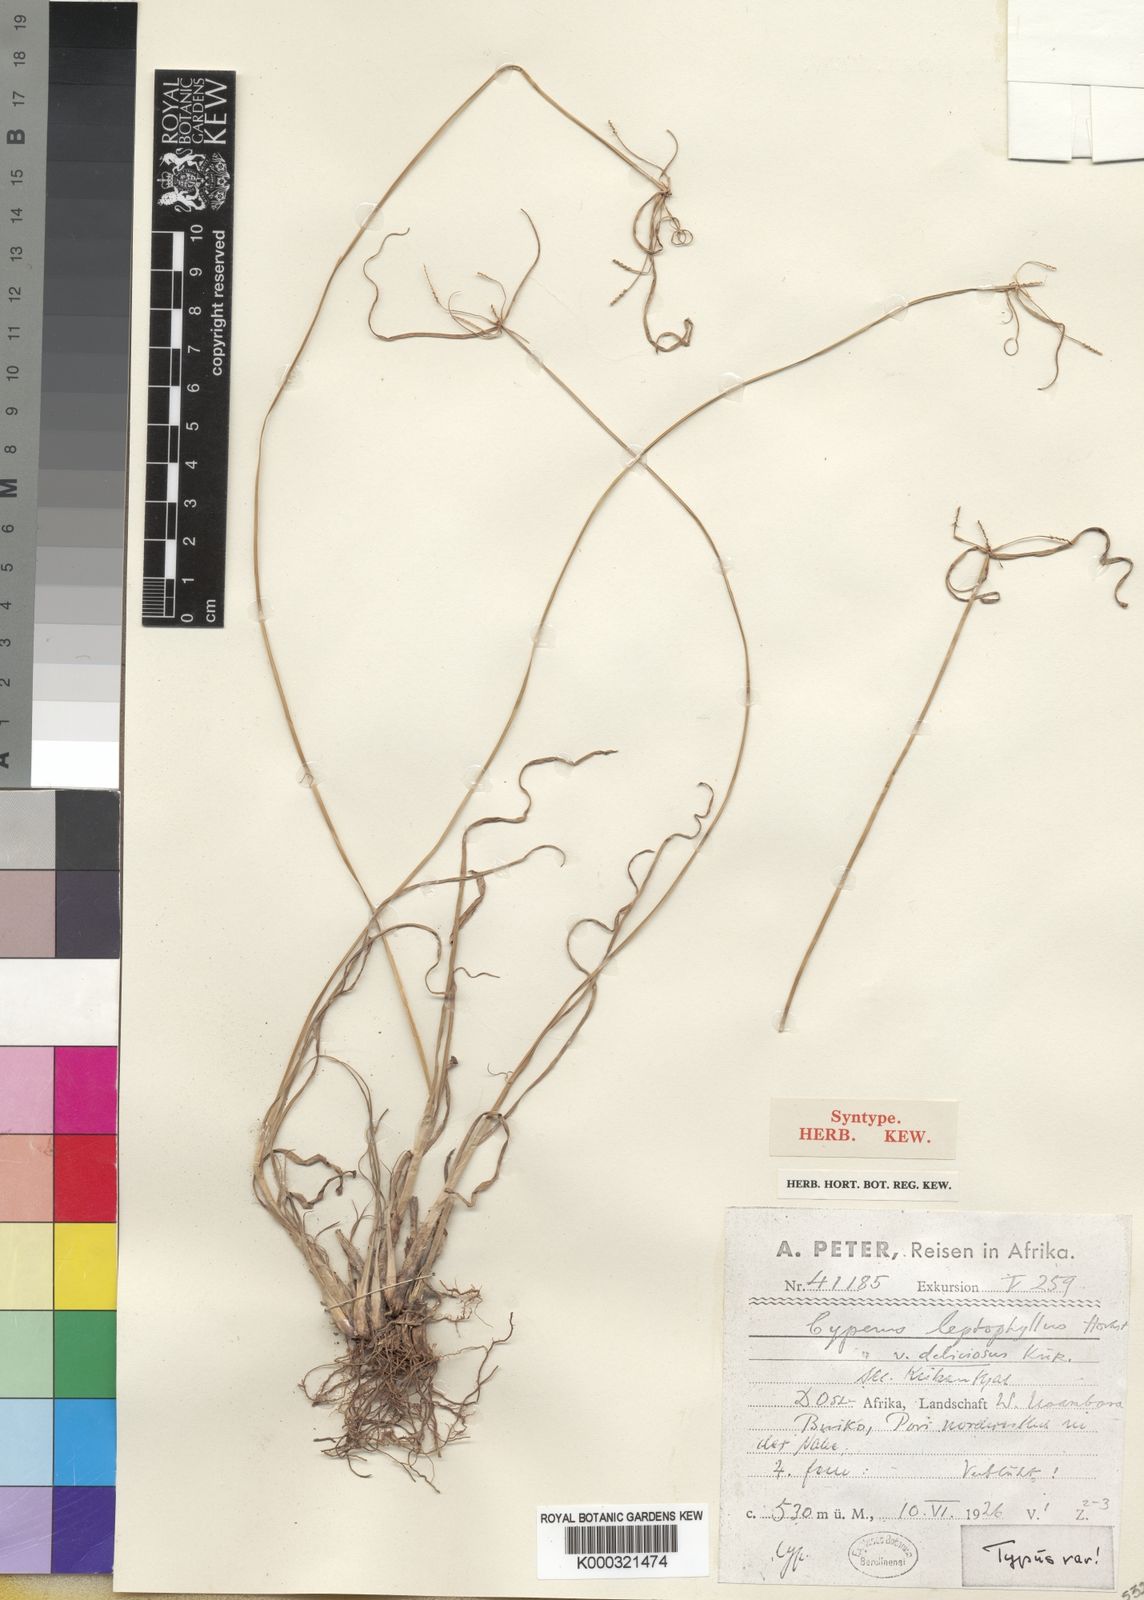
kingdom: Plantae
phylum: Tracheophyta
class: Liliopsida
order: Poales
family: Cyperaceae
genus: Cyperus
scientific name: Cyperus
